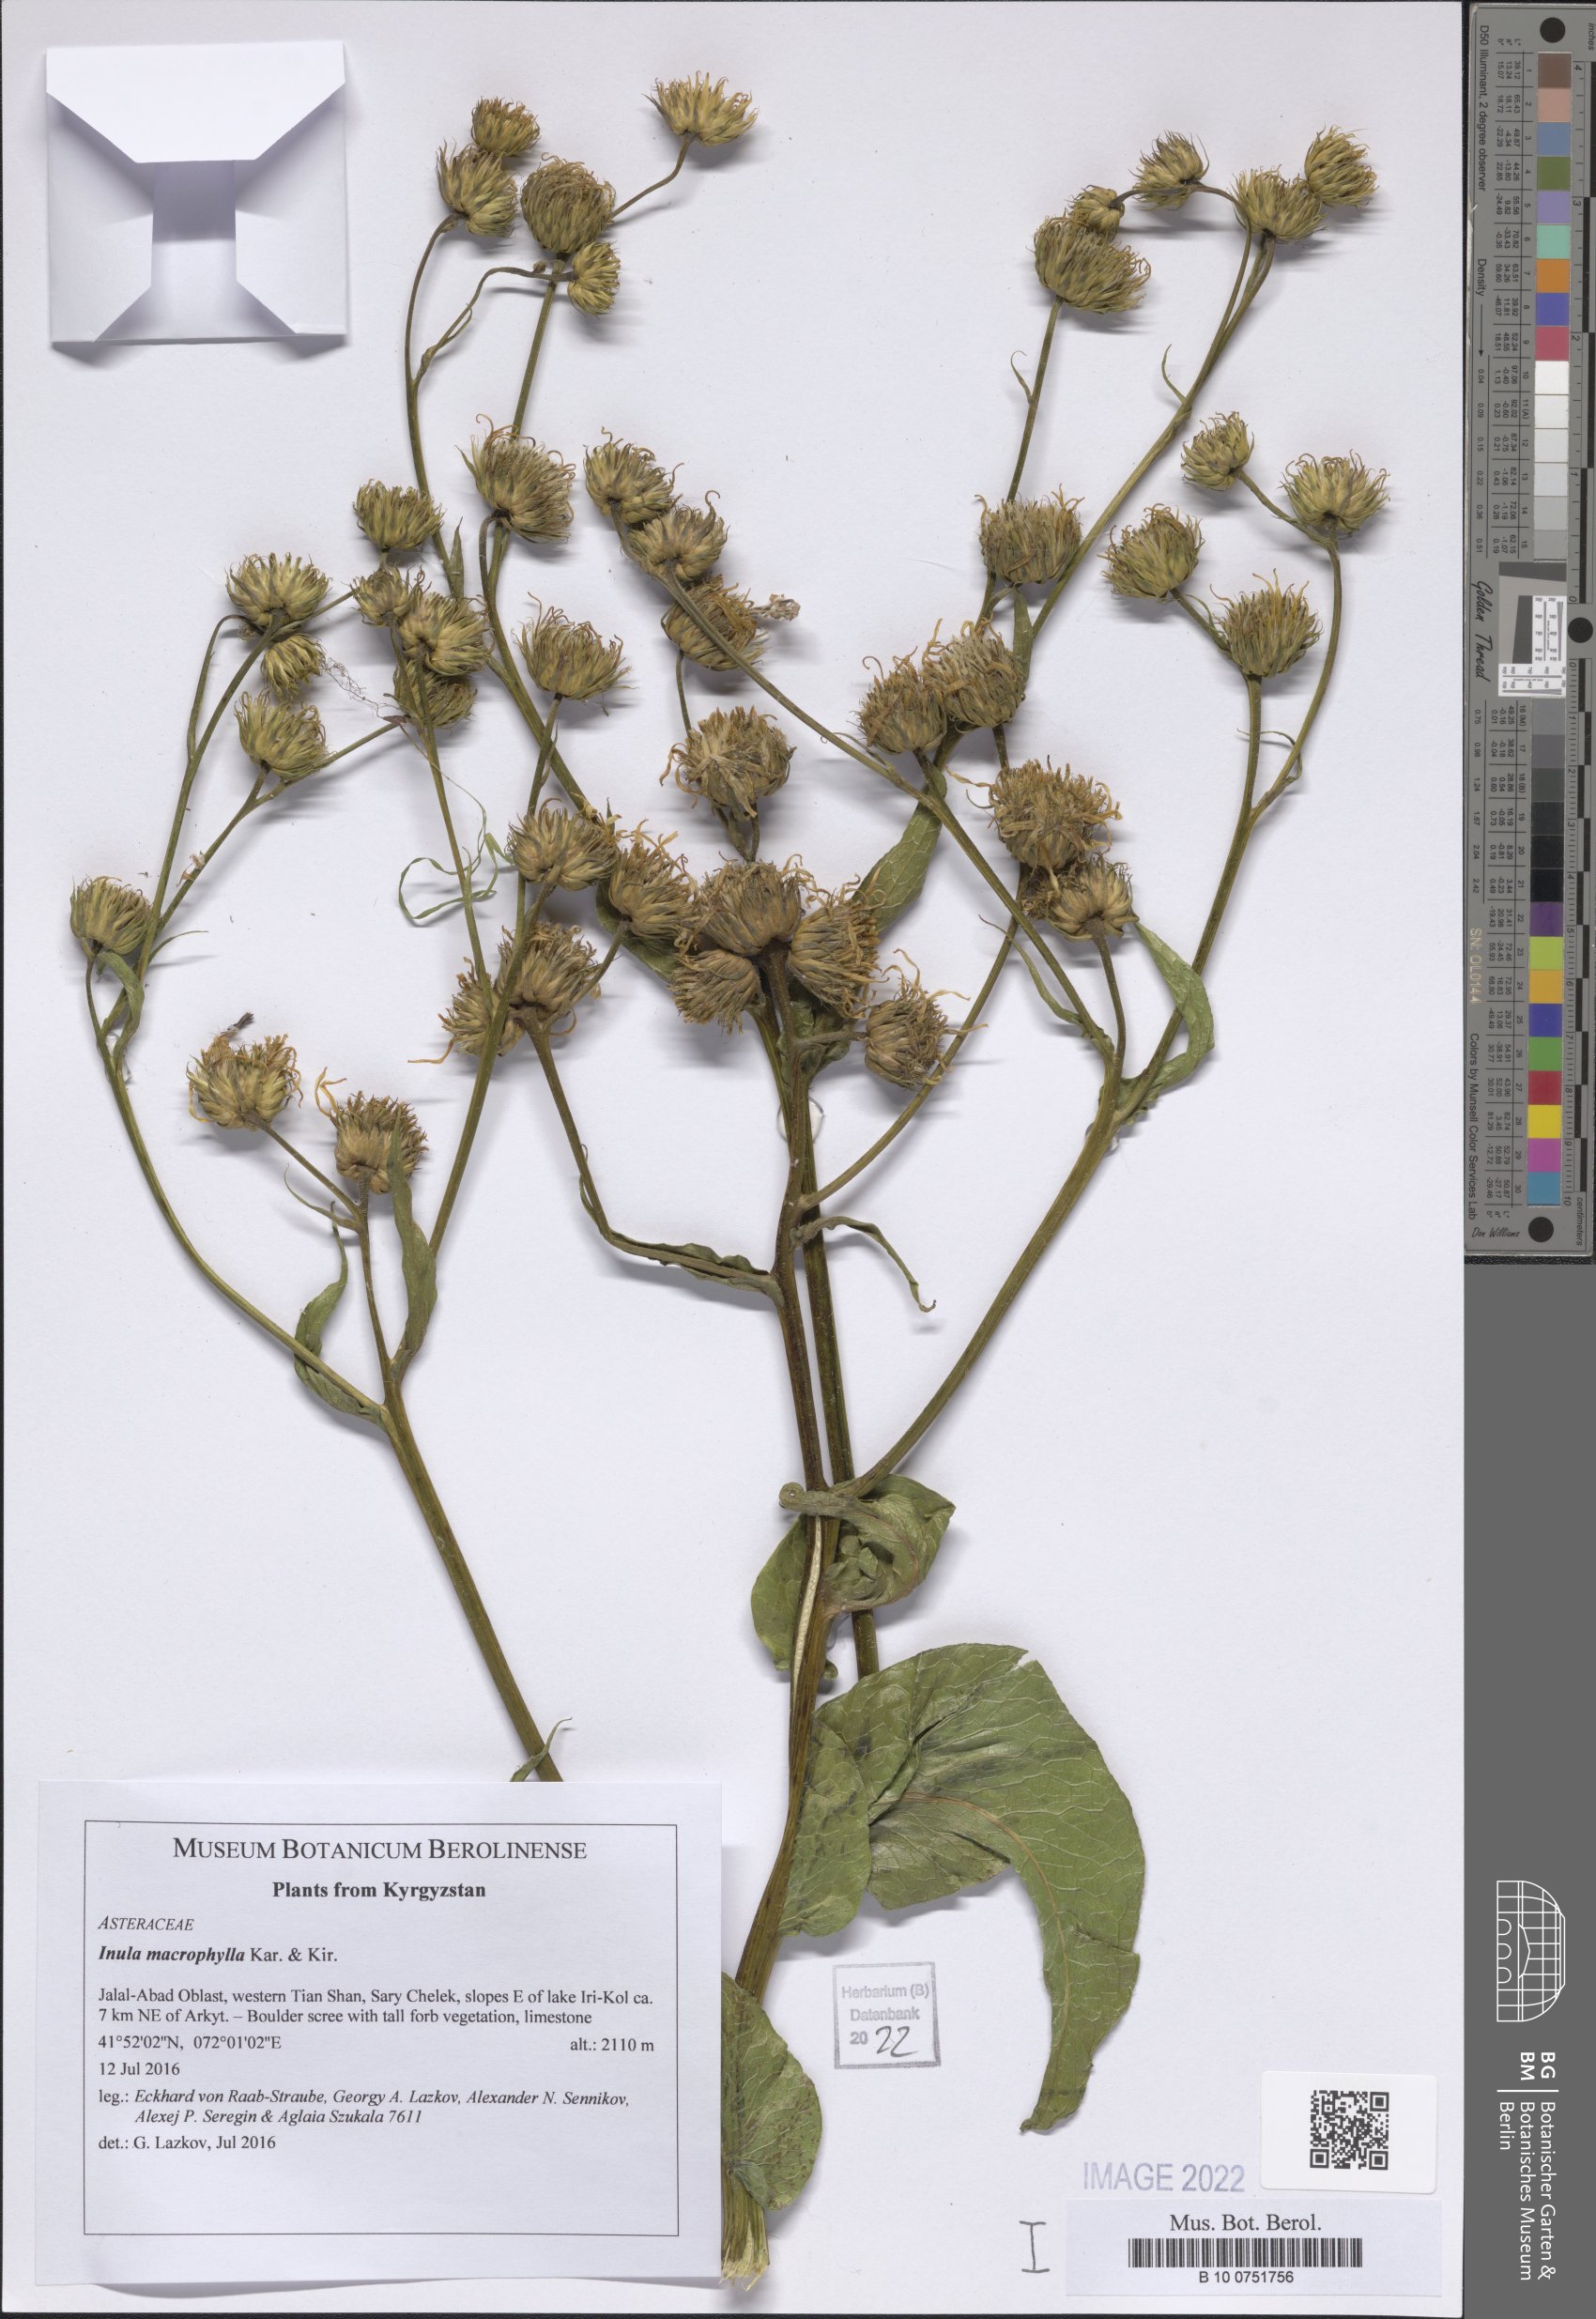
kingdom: Plantae
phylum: Tracheophyta
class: Magnoliopsida
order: Asterales
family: Asteraceae
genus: Inula
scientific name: Inula grandis
